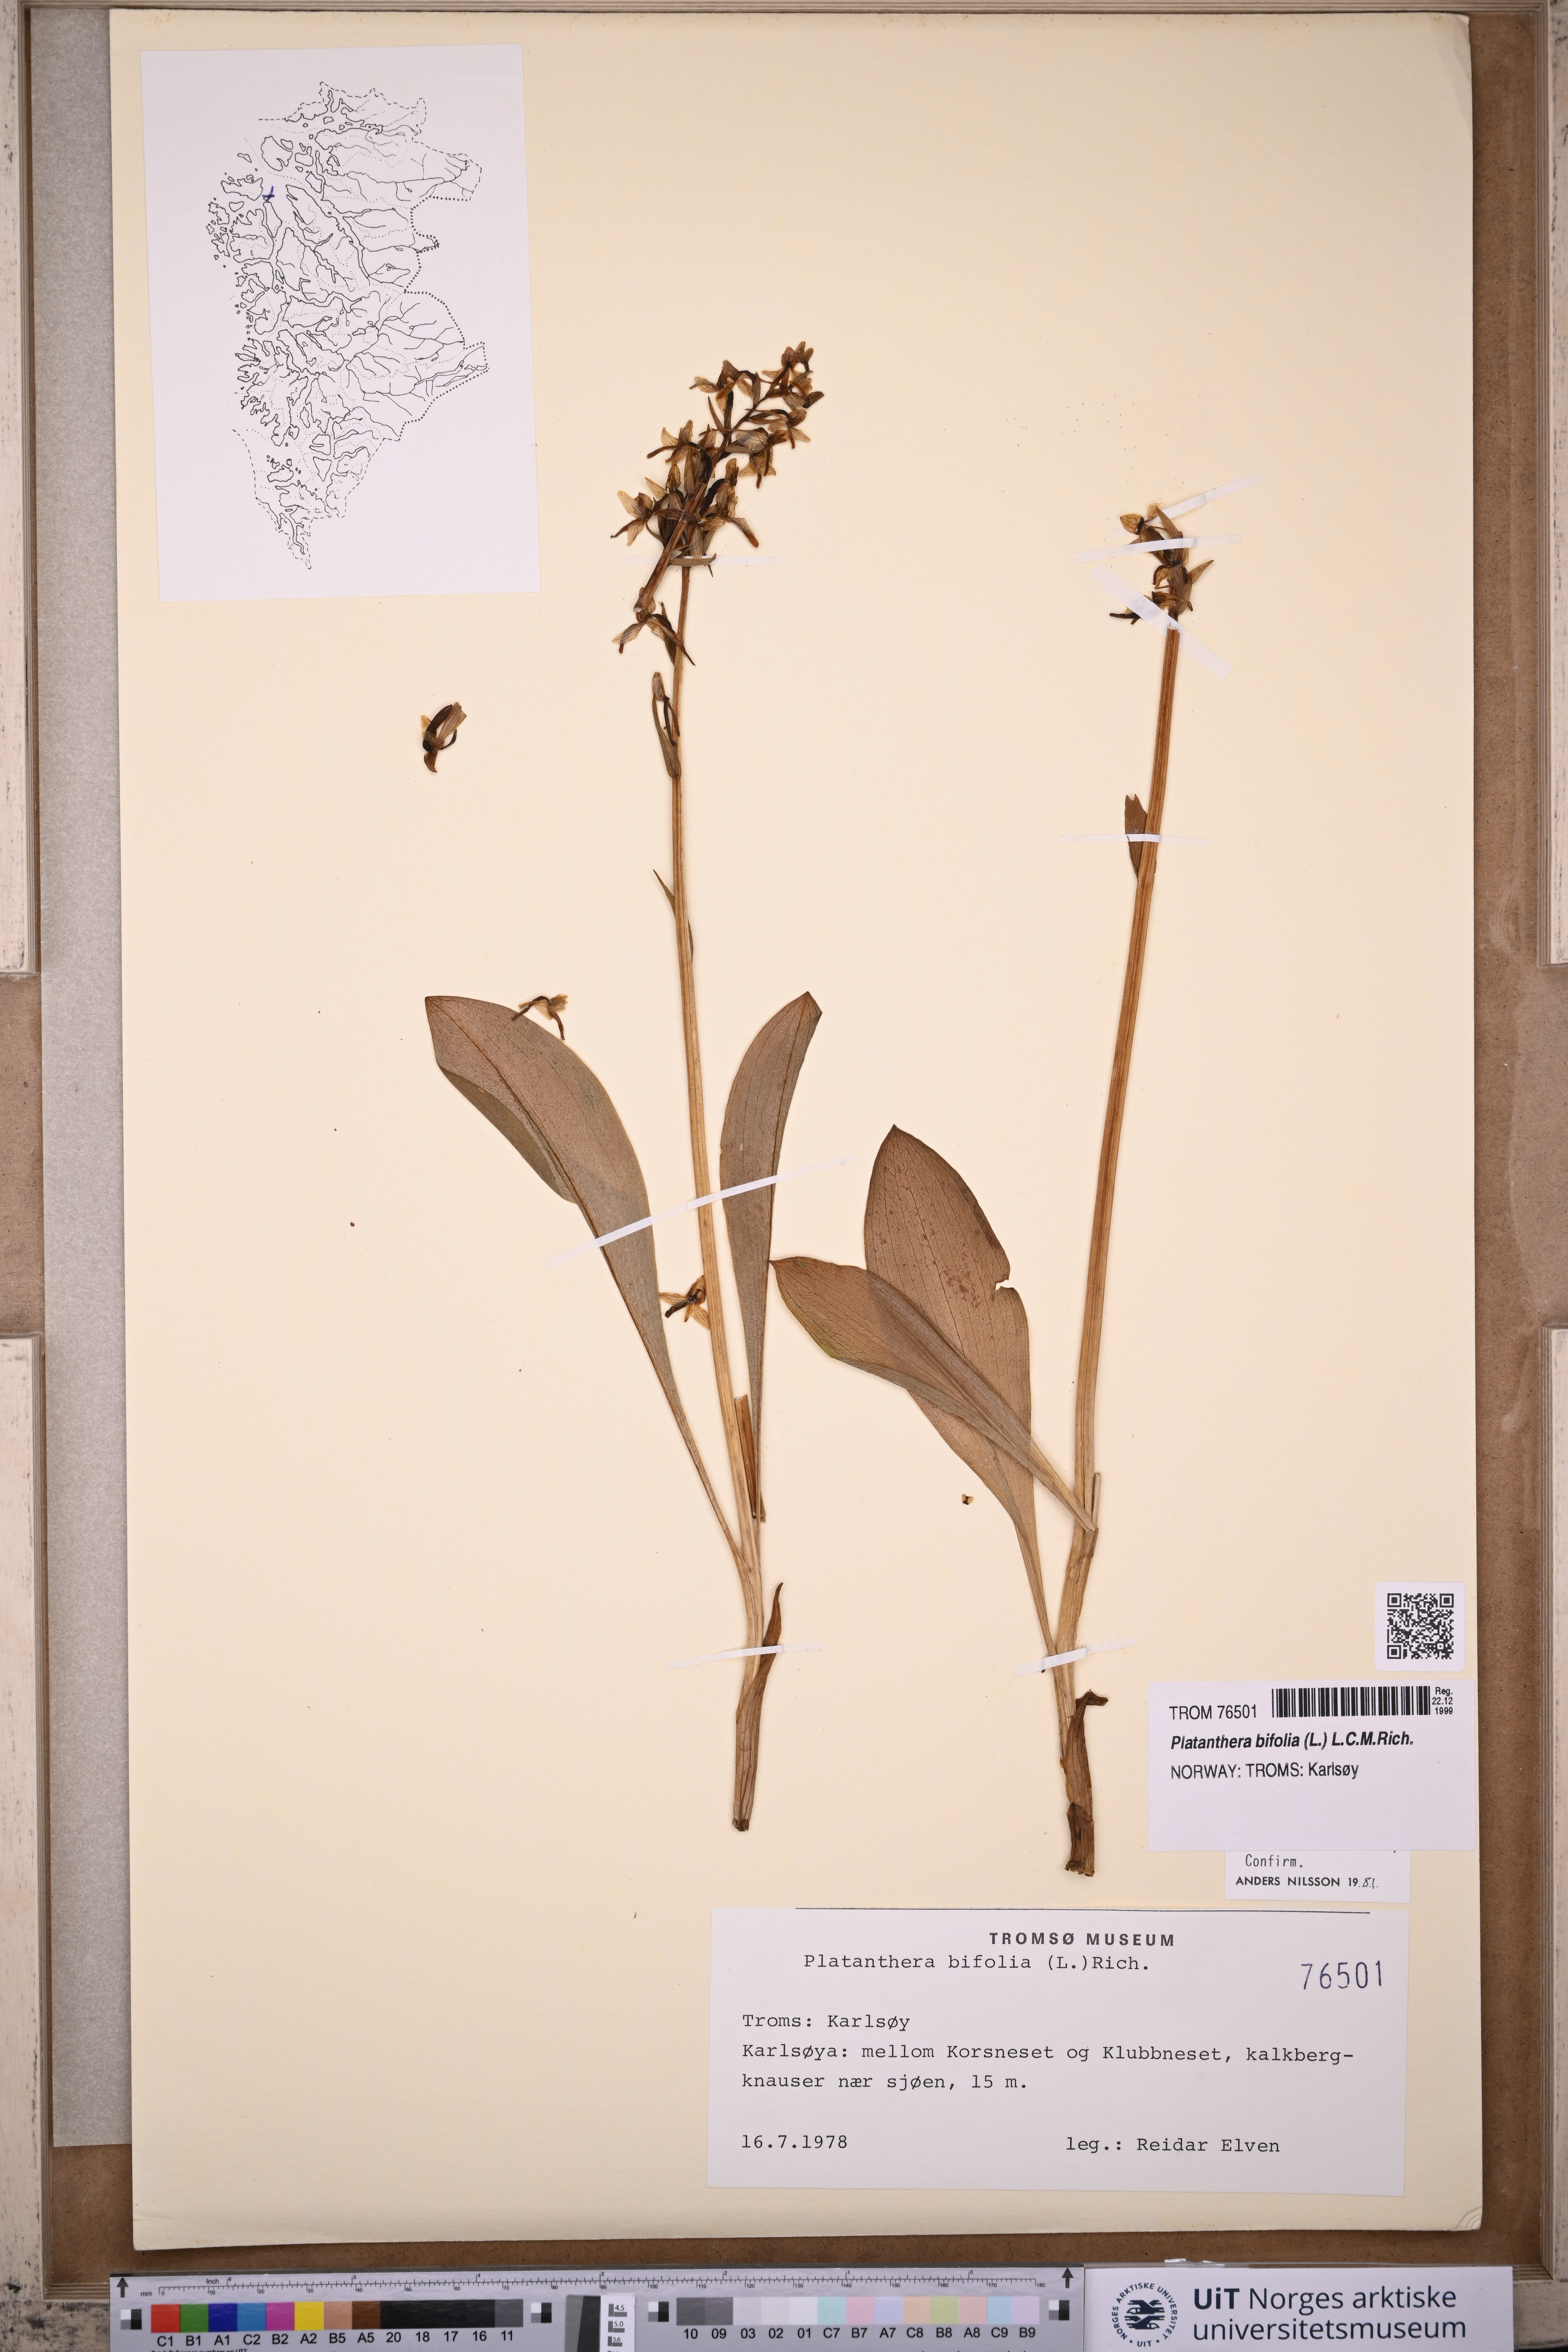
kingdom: Plantae
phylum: Tracheophyta
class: Liliopsida
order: Asparagales
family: Orchidaceae
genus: Platanthera
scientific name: Platanthera bifolia
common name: Lesser butterfly-orchid
